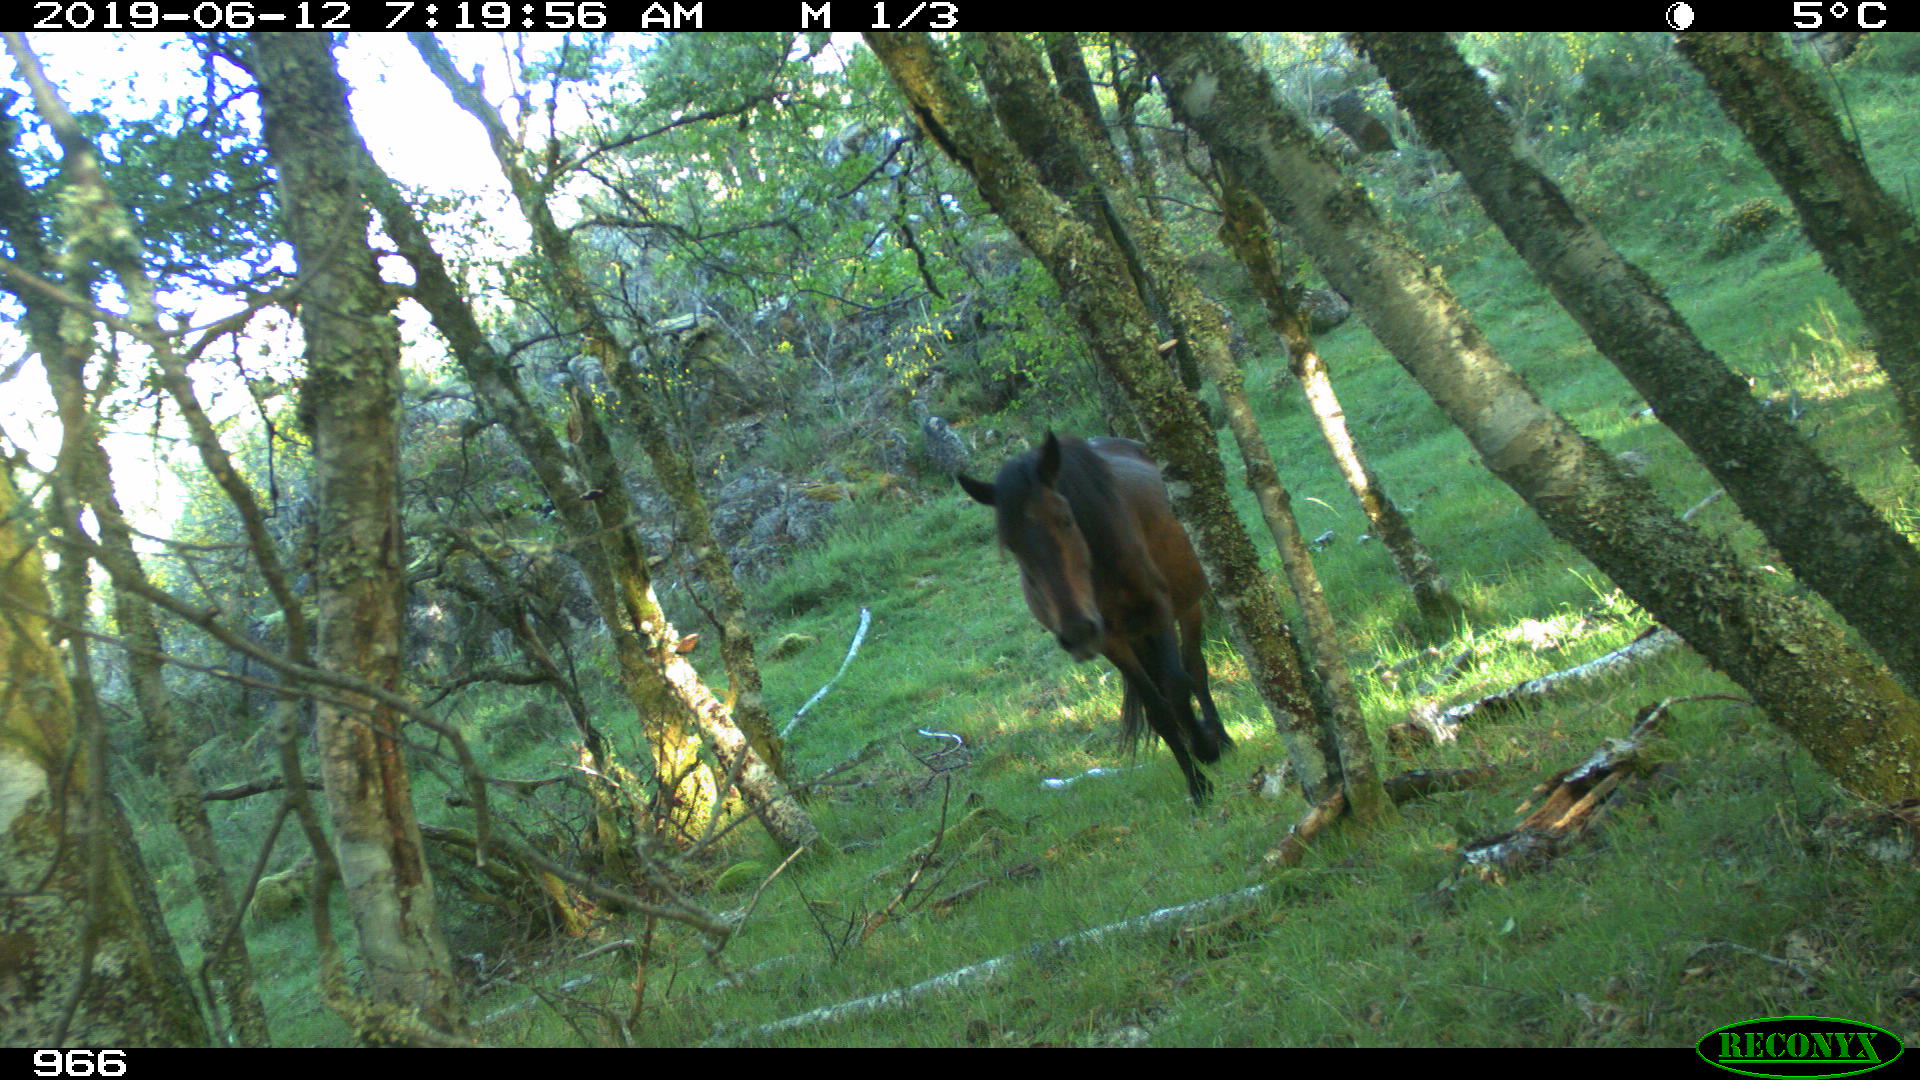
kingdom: Animalia
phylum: Chordata
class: Mammalia
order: Perissodactyla
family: Equidae
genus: Equus
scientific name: Equus caballus
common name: Horse
